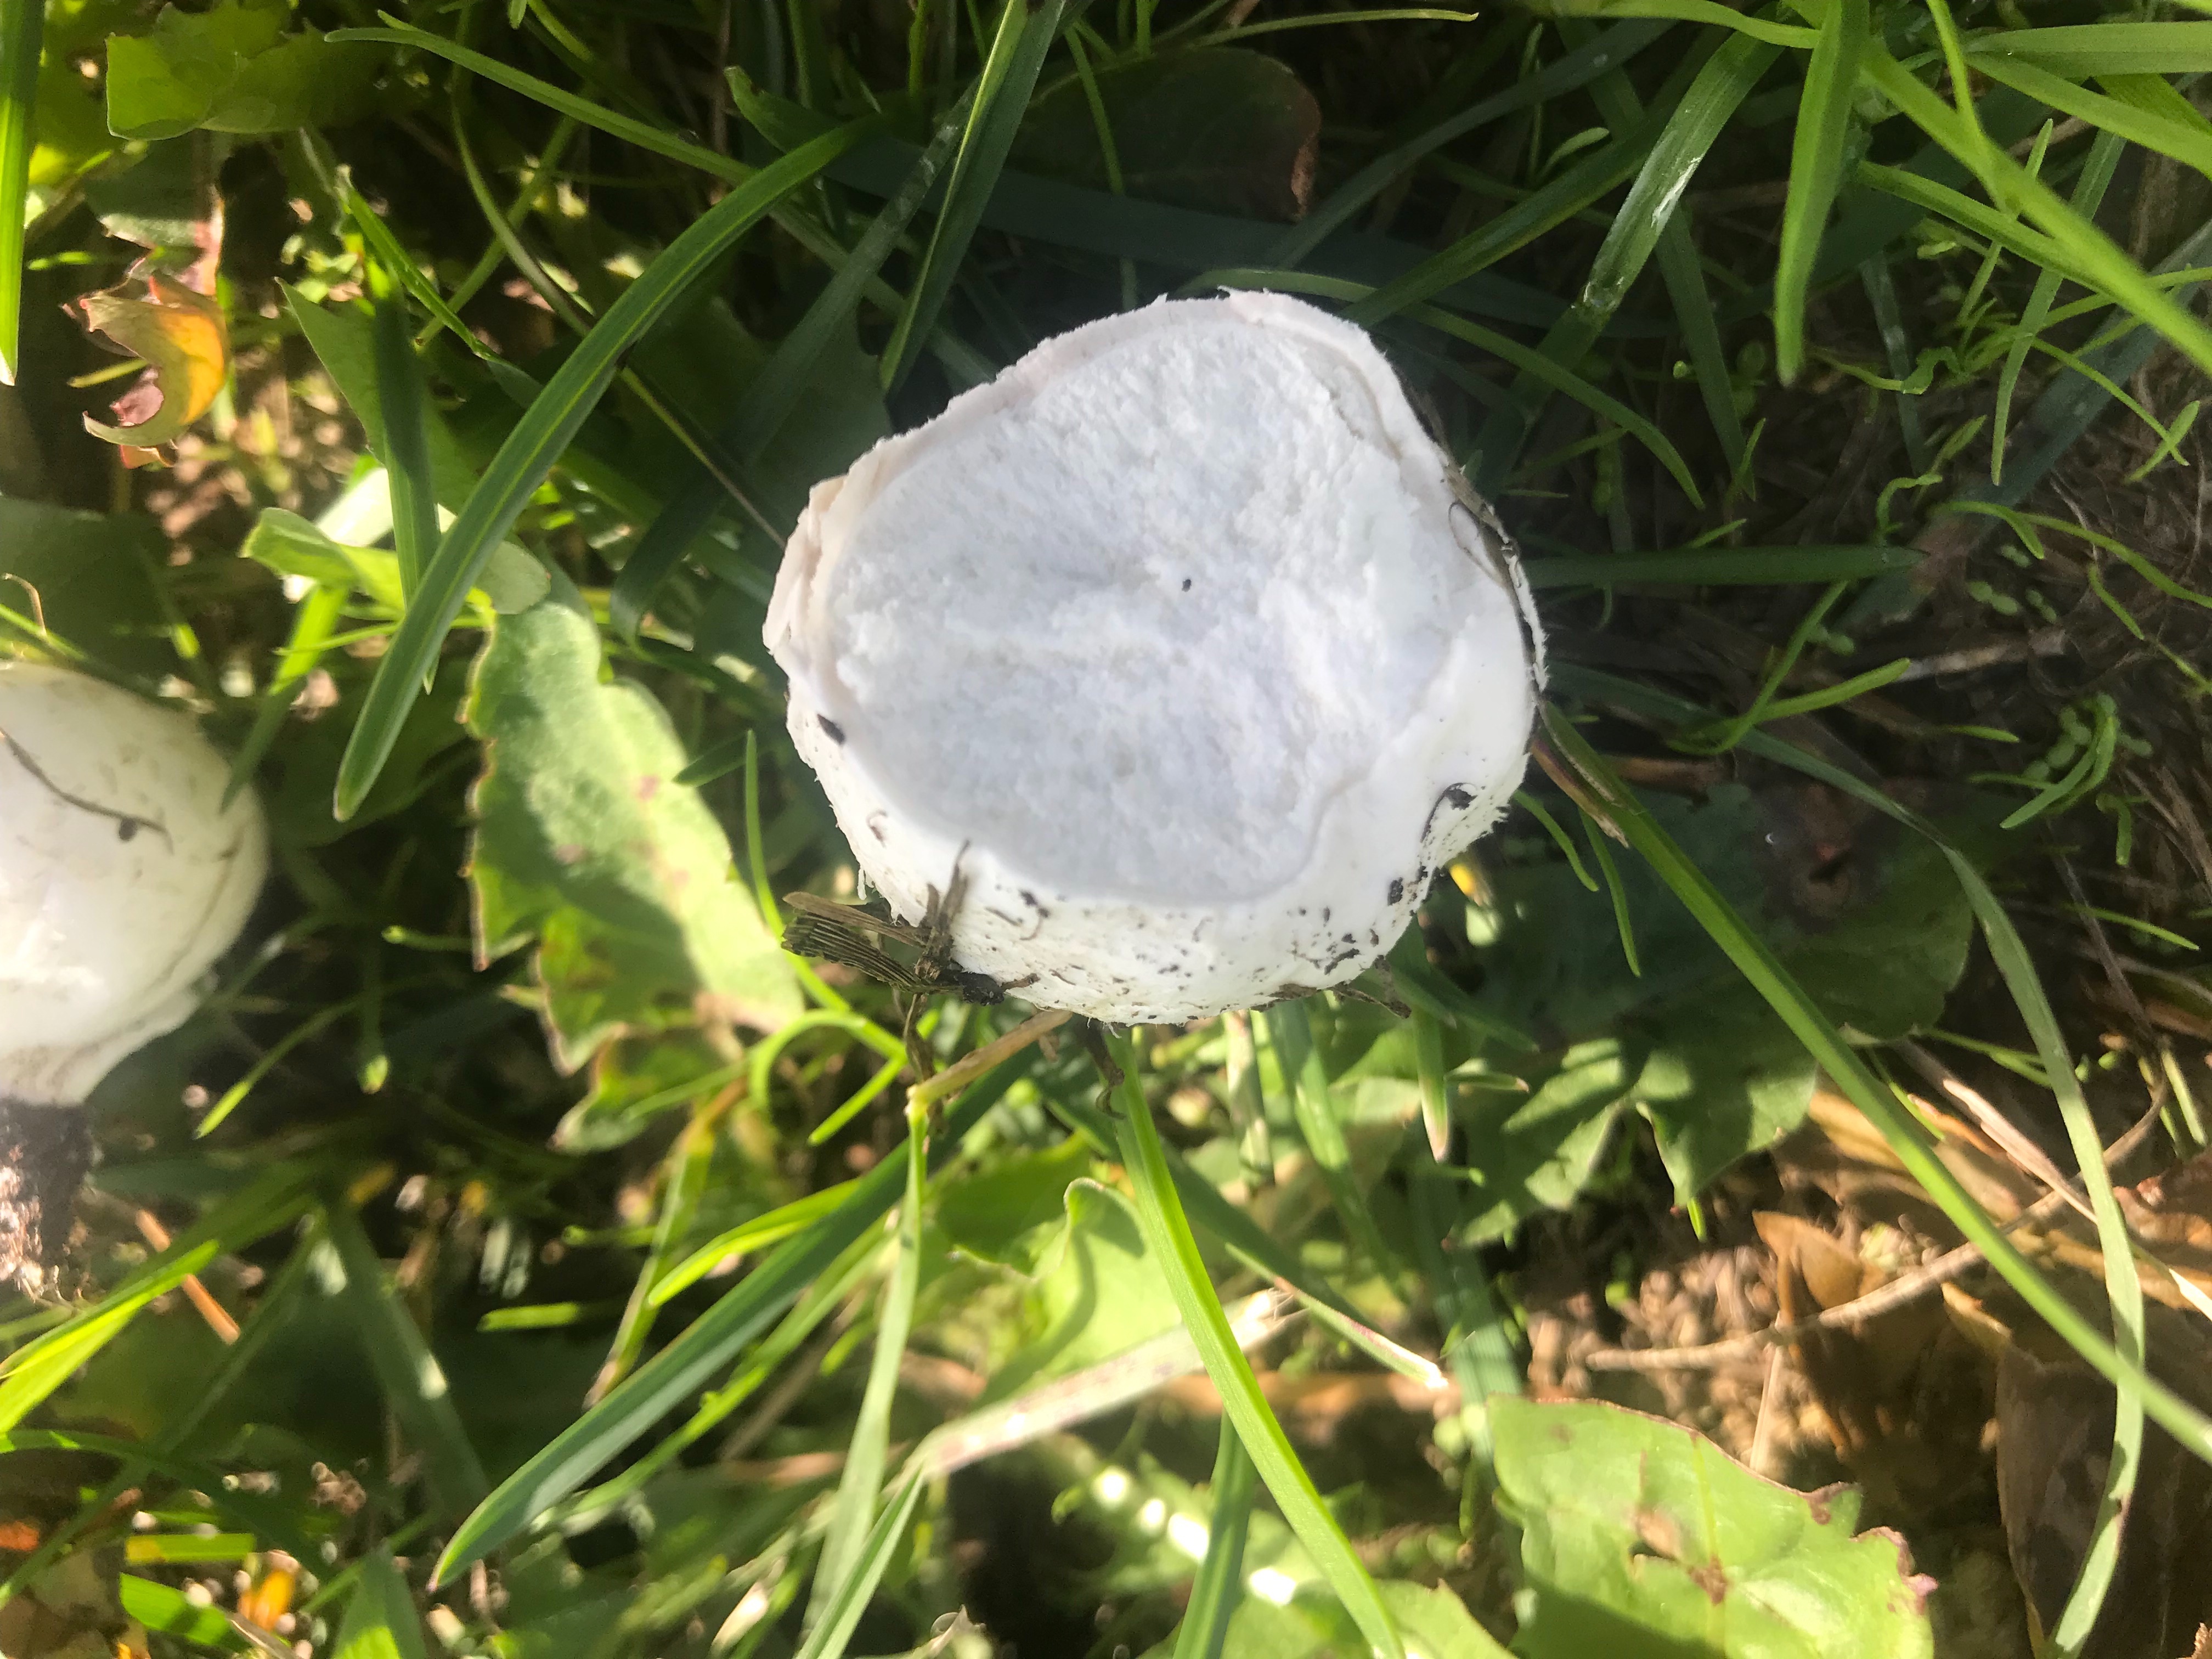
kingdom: Fungi
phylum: Basidiomycota
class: Agaricomycetes
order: Agaricales
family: Lycoperdaceae
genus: Bovista
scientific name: Bovista
